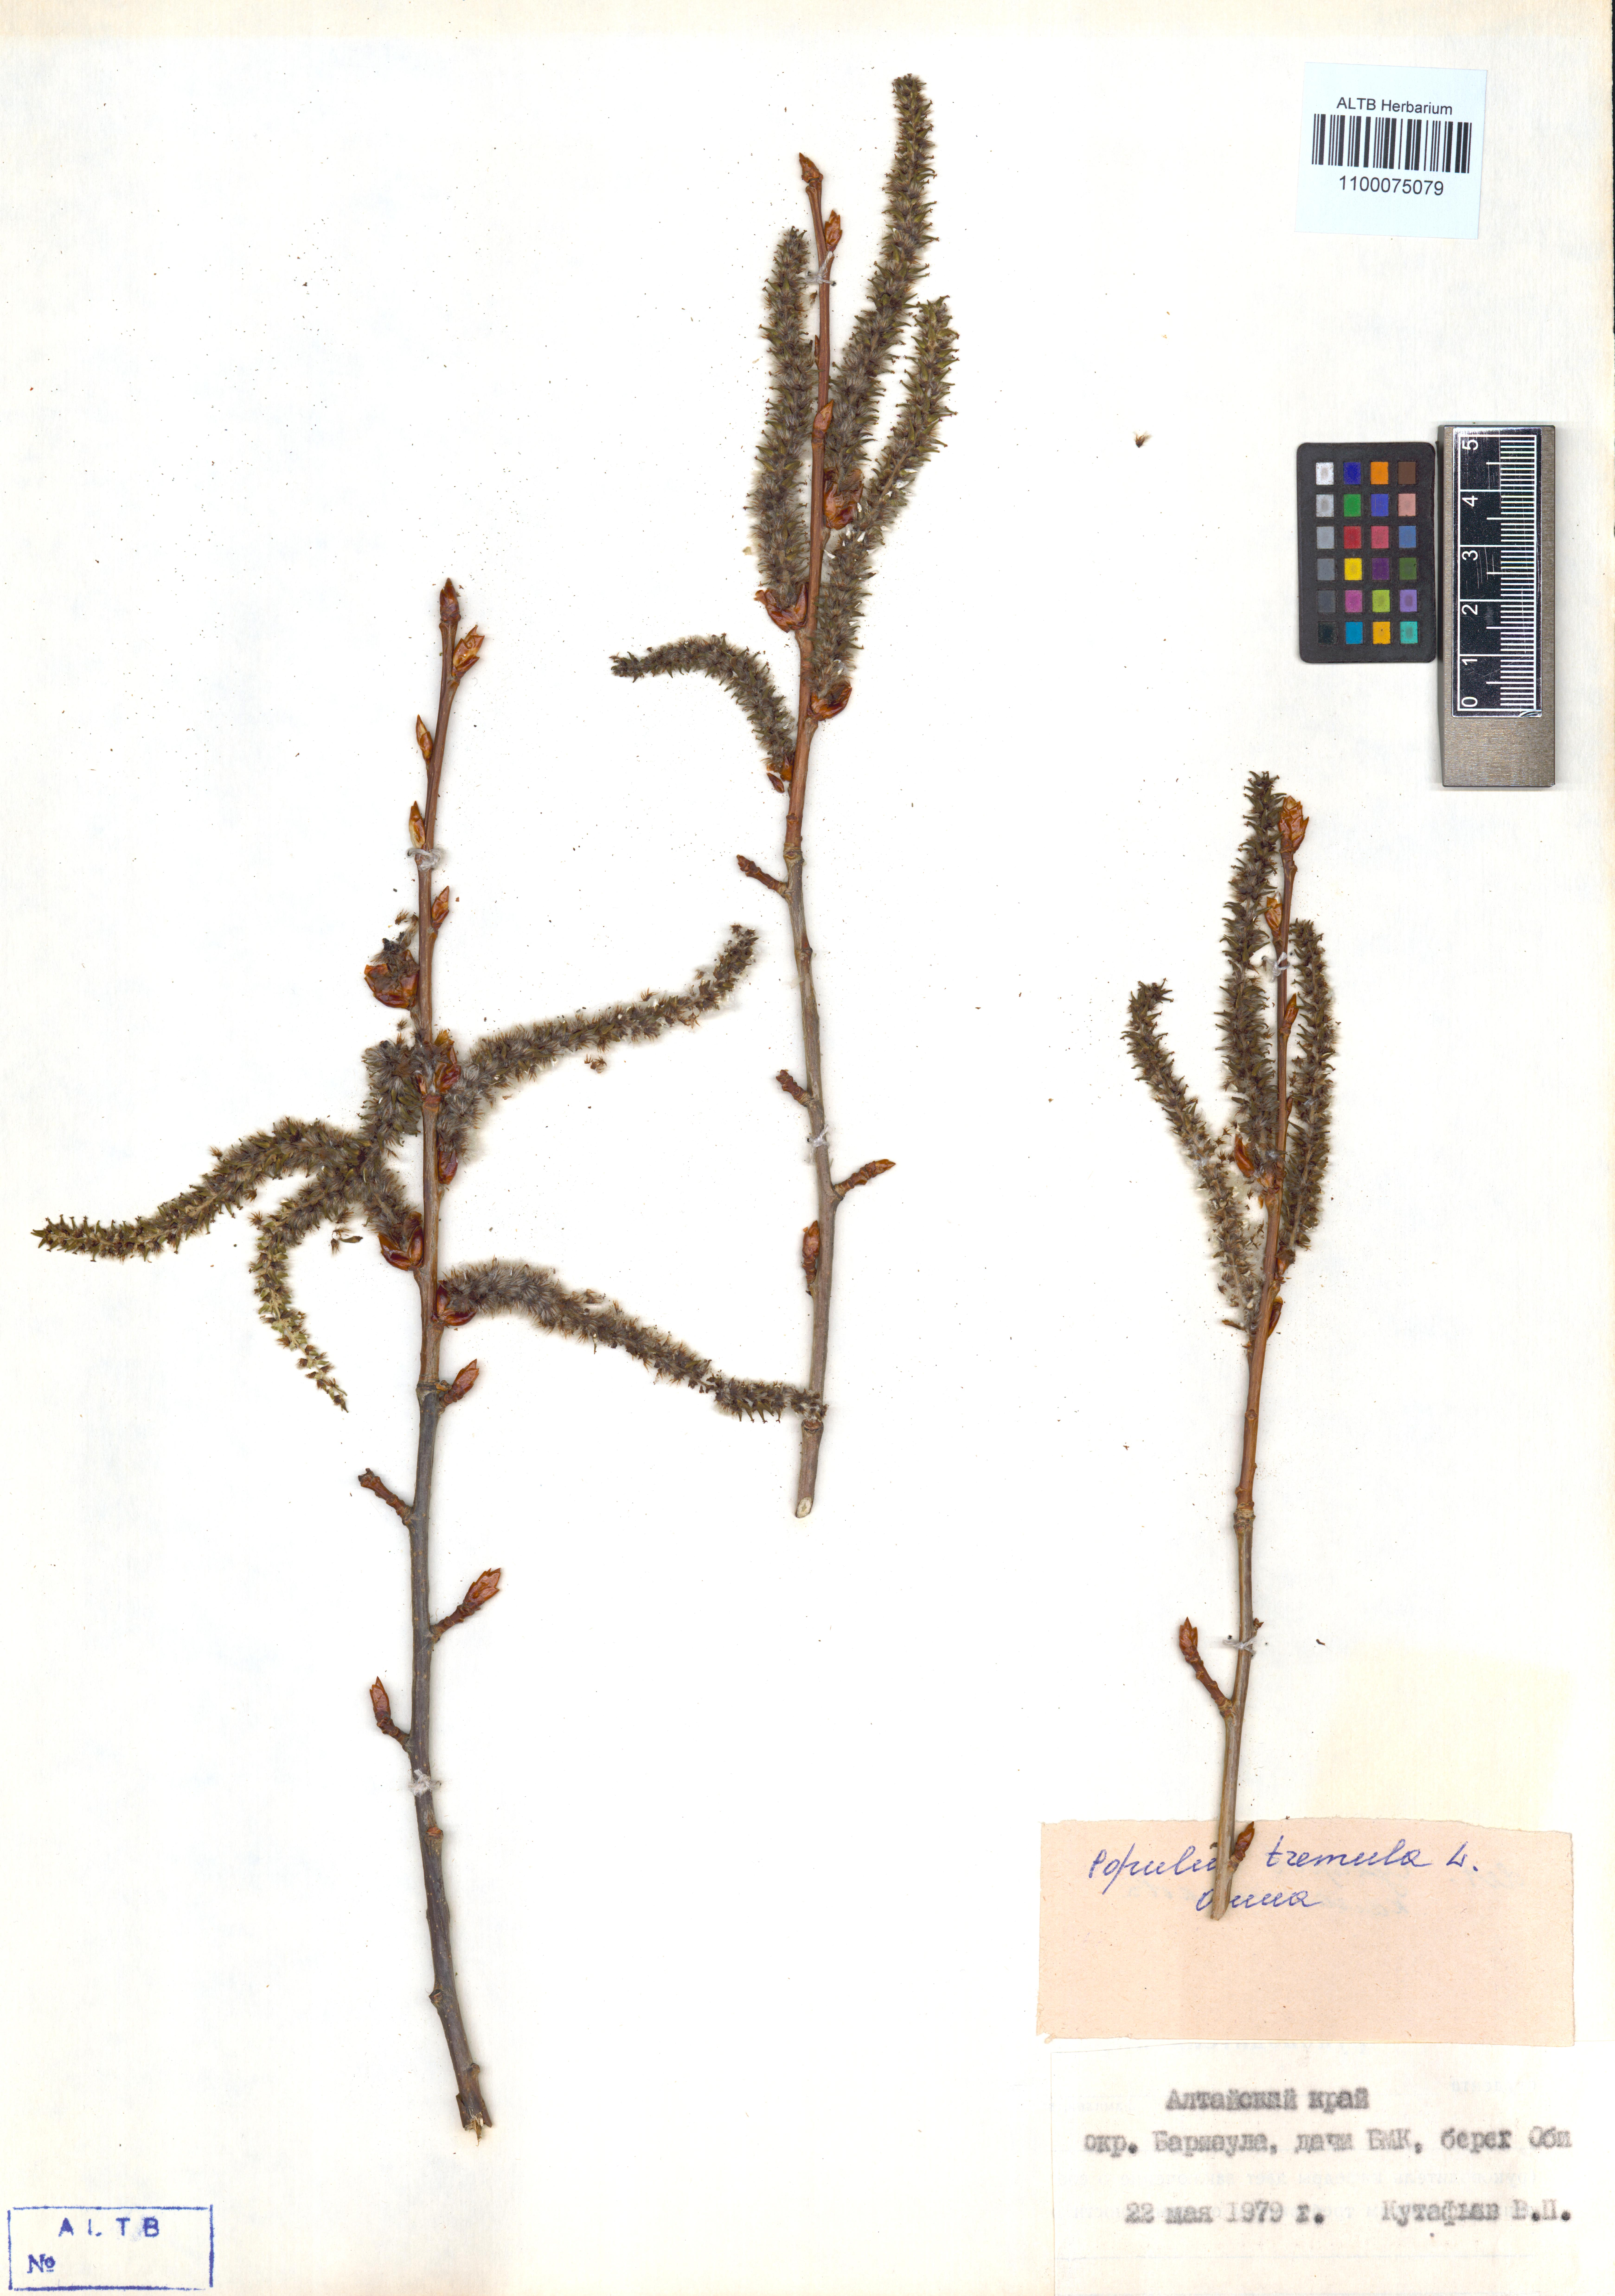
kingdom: Plantae
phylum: Tracheophyta
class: Magnoliopsida
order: Malpighiales
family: Salicaceae
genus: Populus
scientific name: Populus tremula
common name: European aspen
